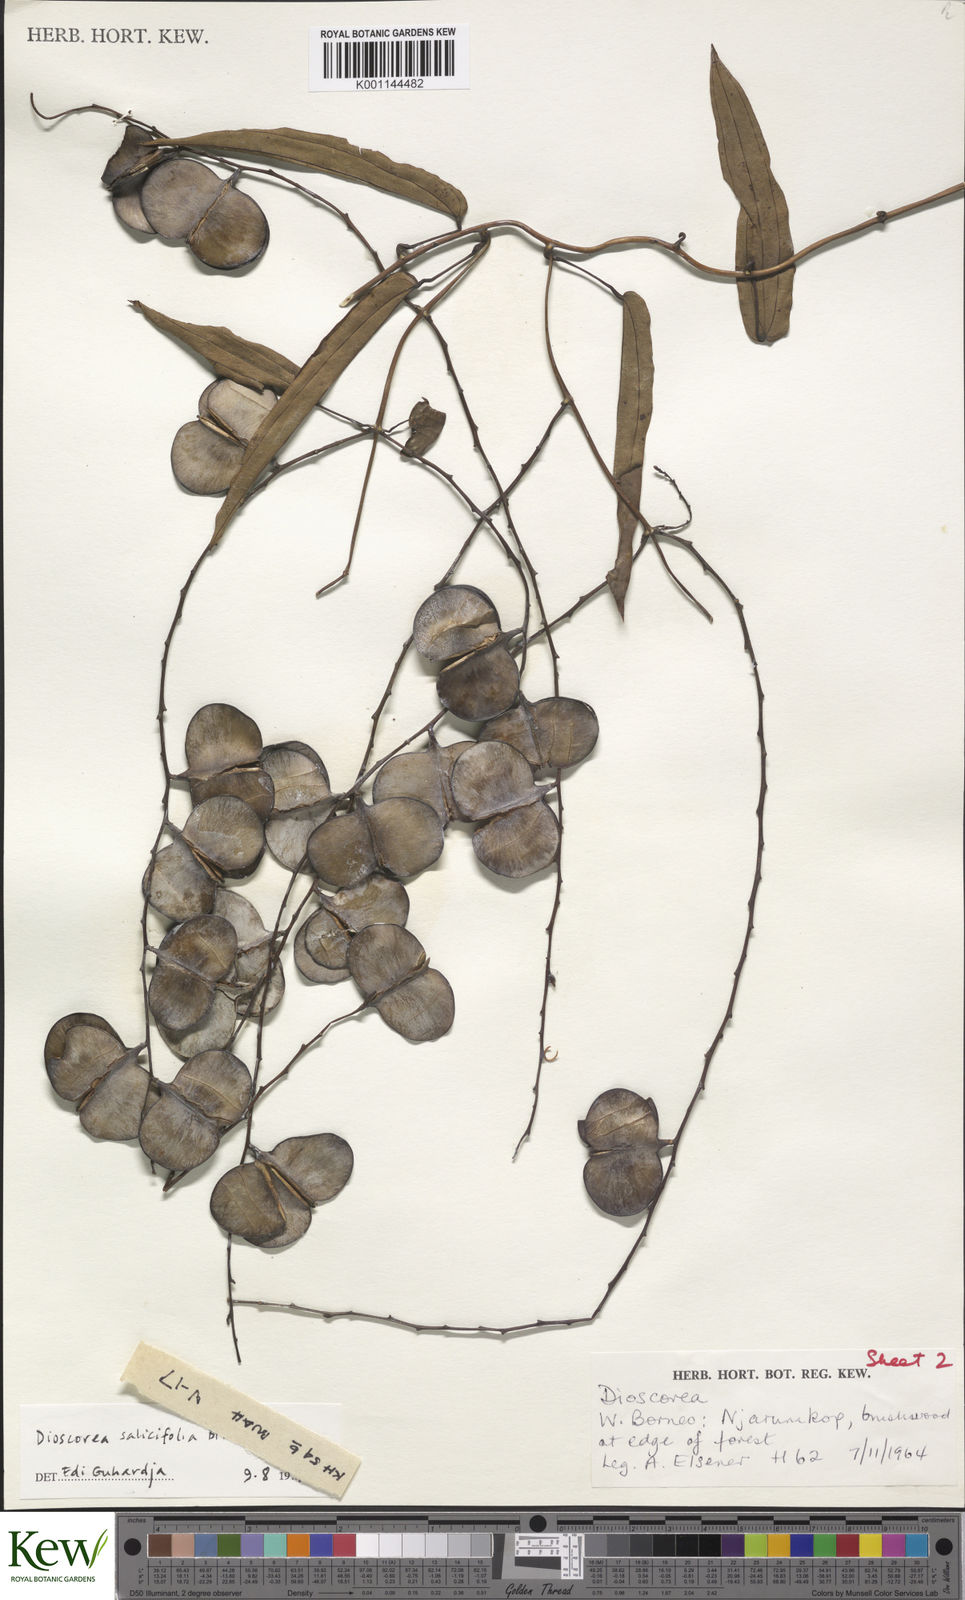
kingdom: Plantae
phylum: Tracheophyta
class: Liliopsida
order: Dioscoreales
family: Dioscoreaceae
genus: Dioscorea
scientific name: Dioscorea salicifolia
